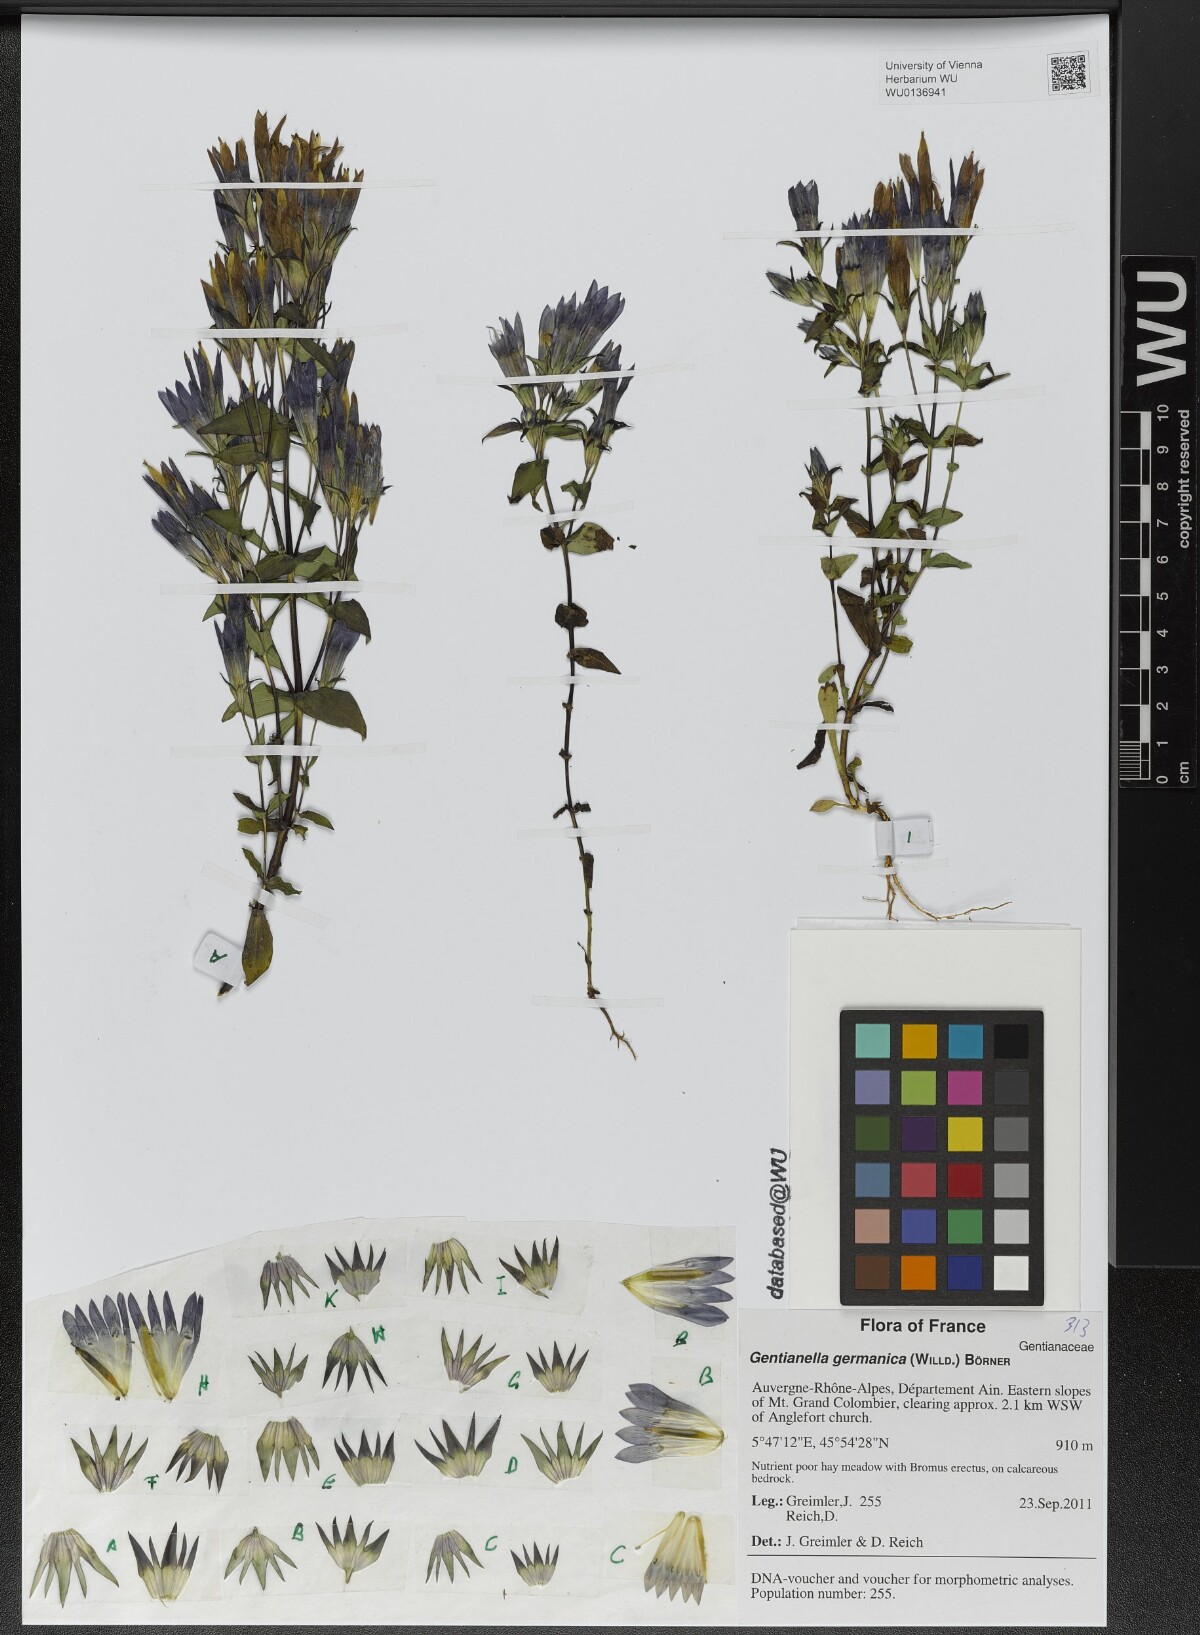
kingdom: Plantae
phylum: Tracheophyta
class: Magnoliopsida
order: Gentianales
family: Gentianaceae
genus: Gentianella
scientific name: Gentianella germanica
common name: Chiltern-gentian
